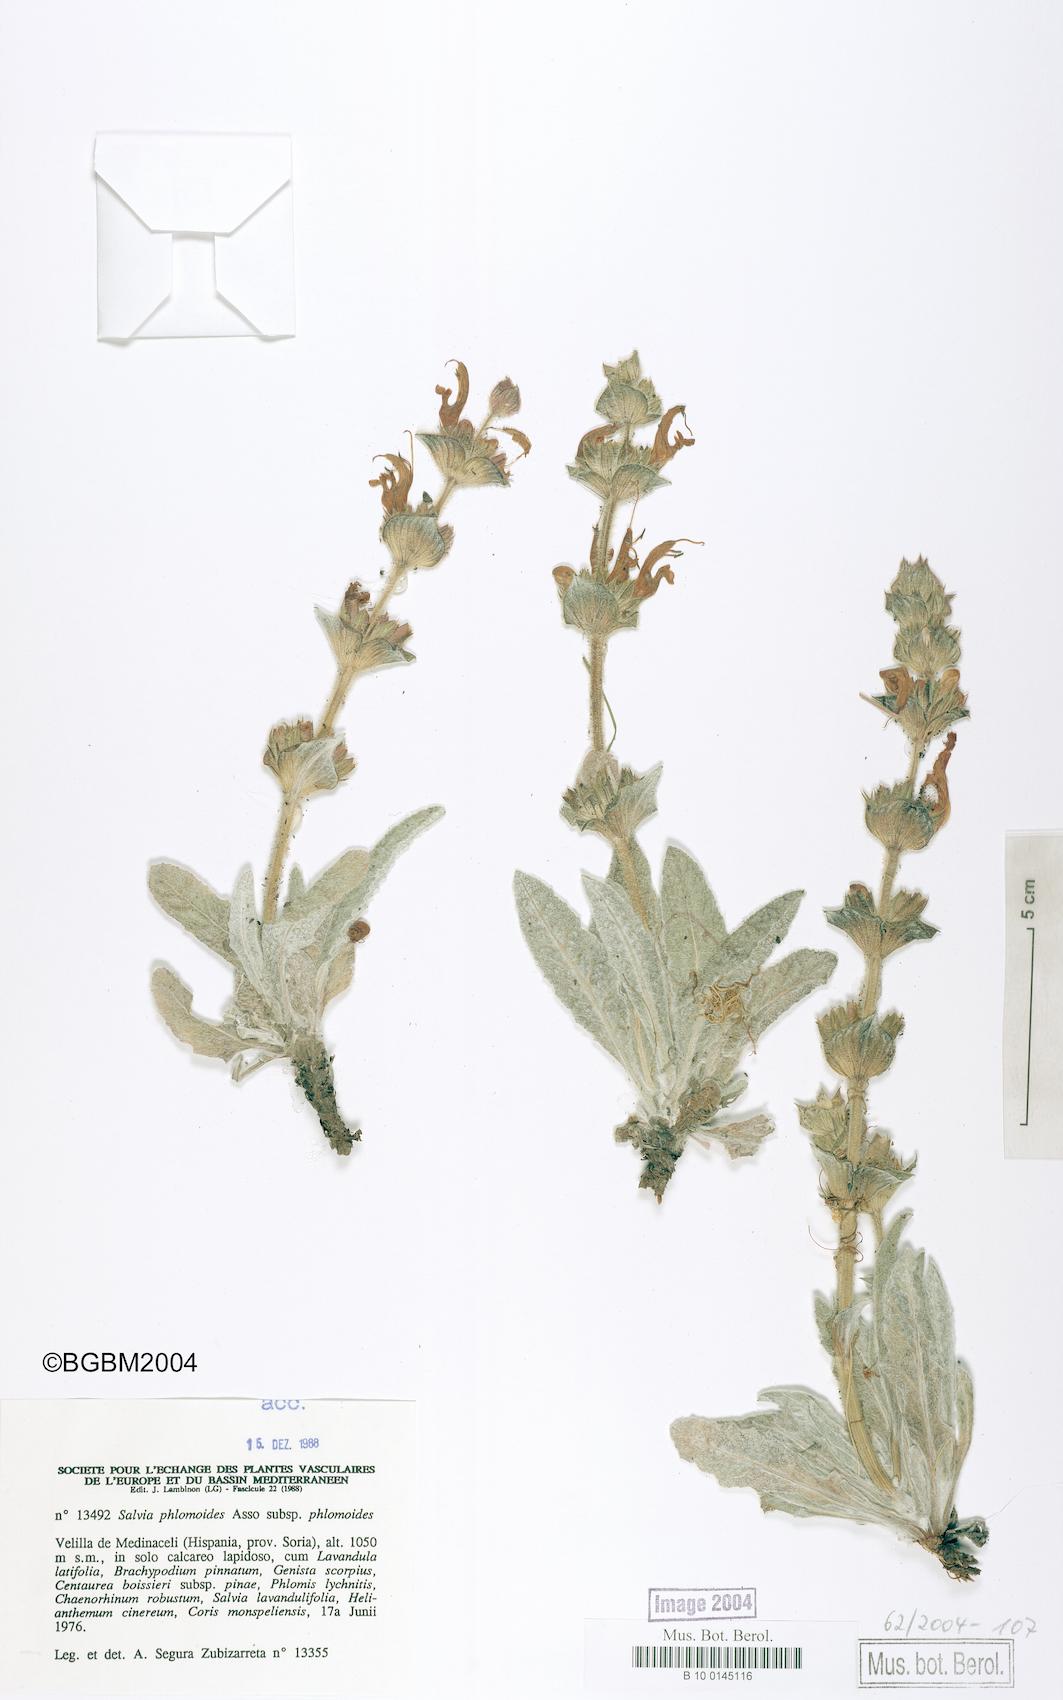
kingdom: Plantae
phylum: Tracheophyta
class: Magnoliopsida
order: Lamiales
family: Lamiaceae
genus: Salvia
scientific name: Salvia phlomoides
